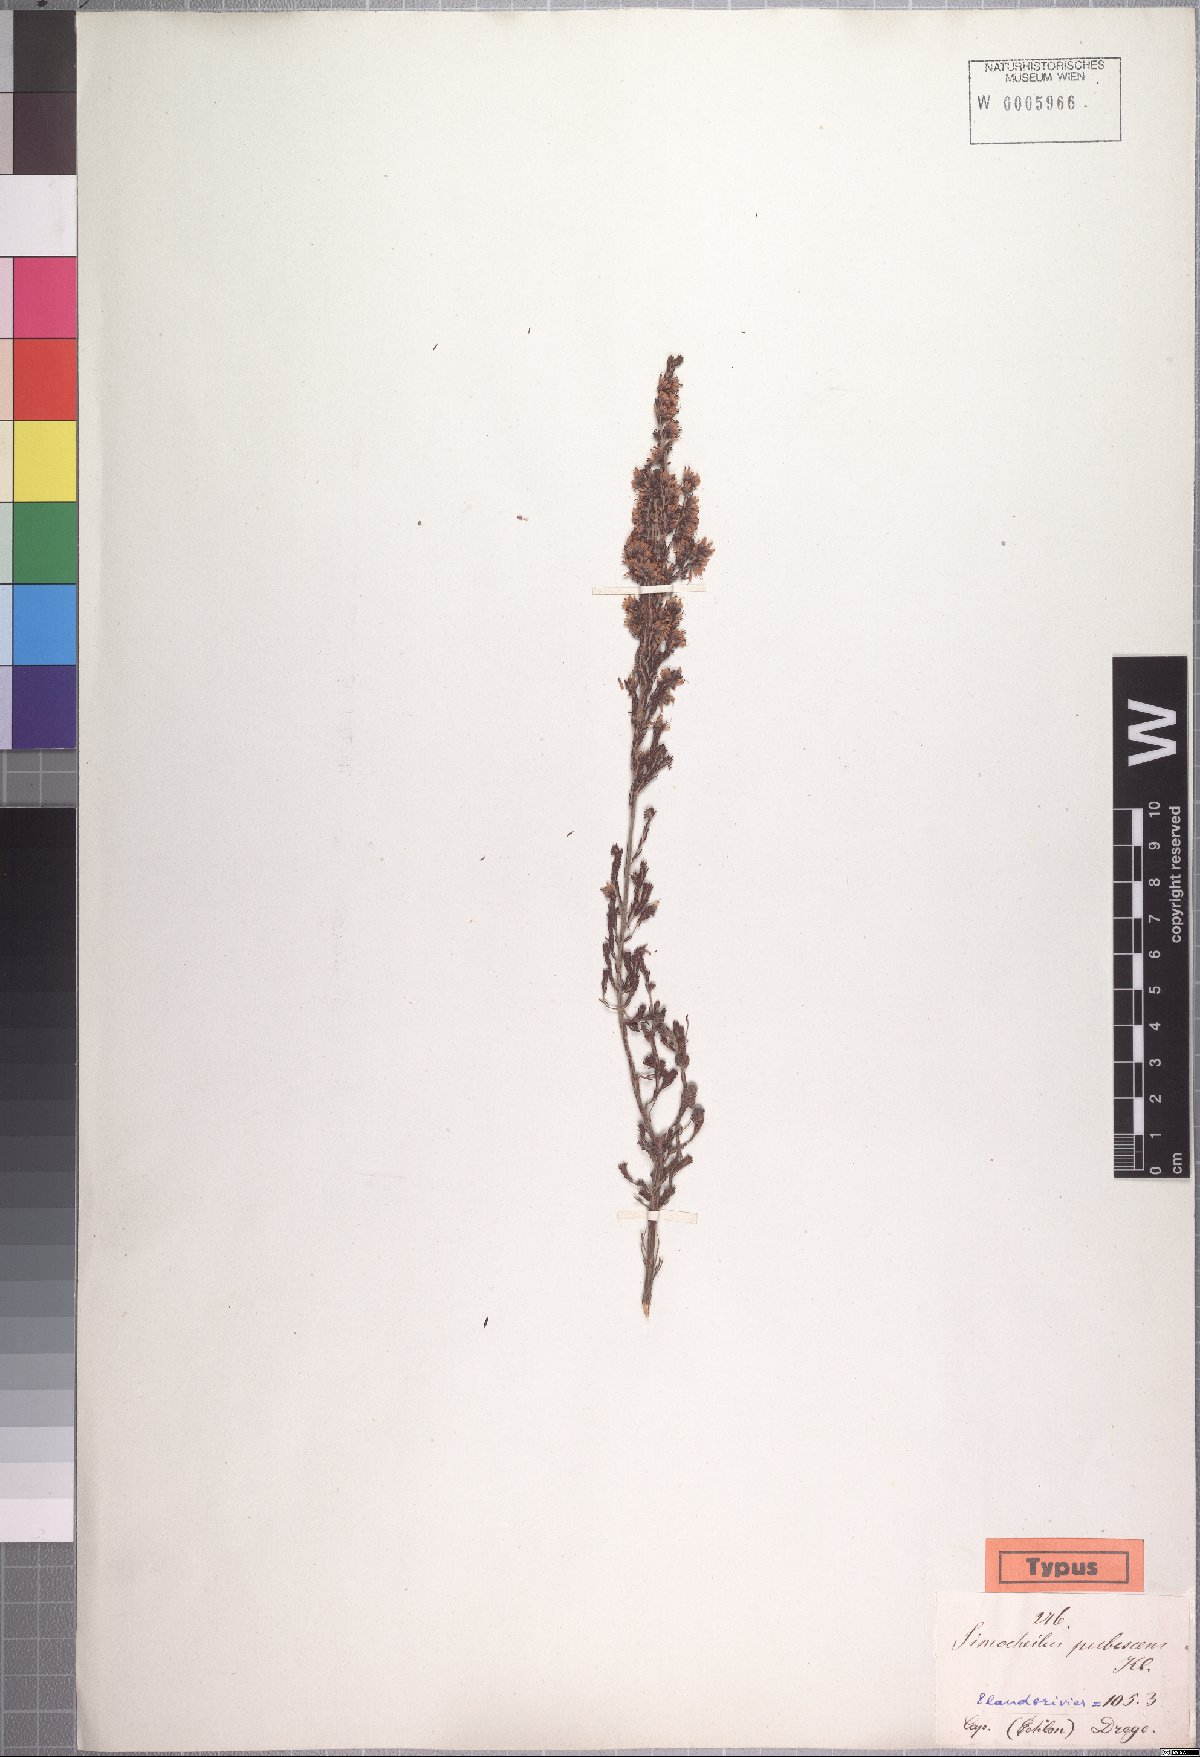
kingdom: Plantae
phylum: Tracheophyta
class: Magnoliopsida
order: Ericales
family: Ericaceae
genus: Erica
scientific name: Erica uberiflora
